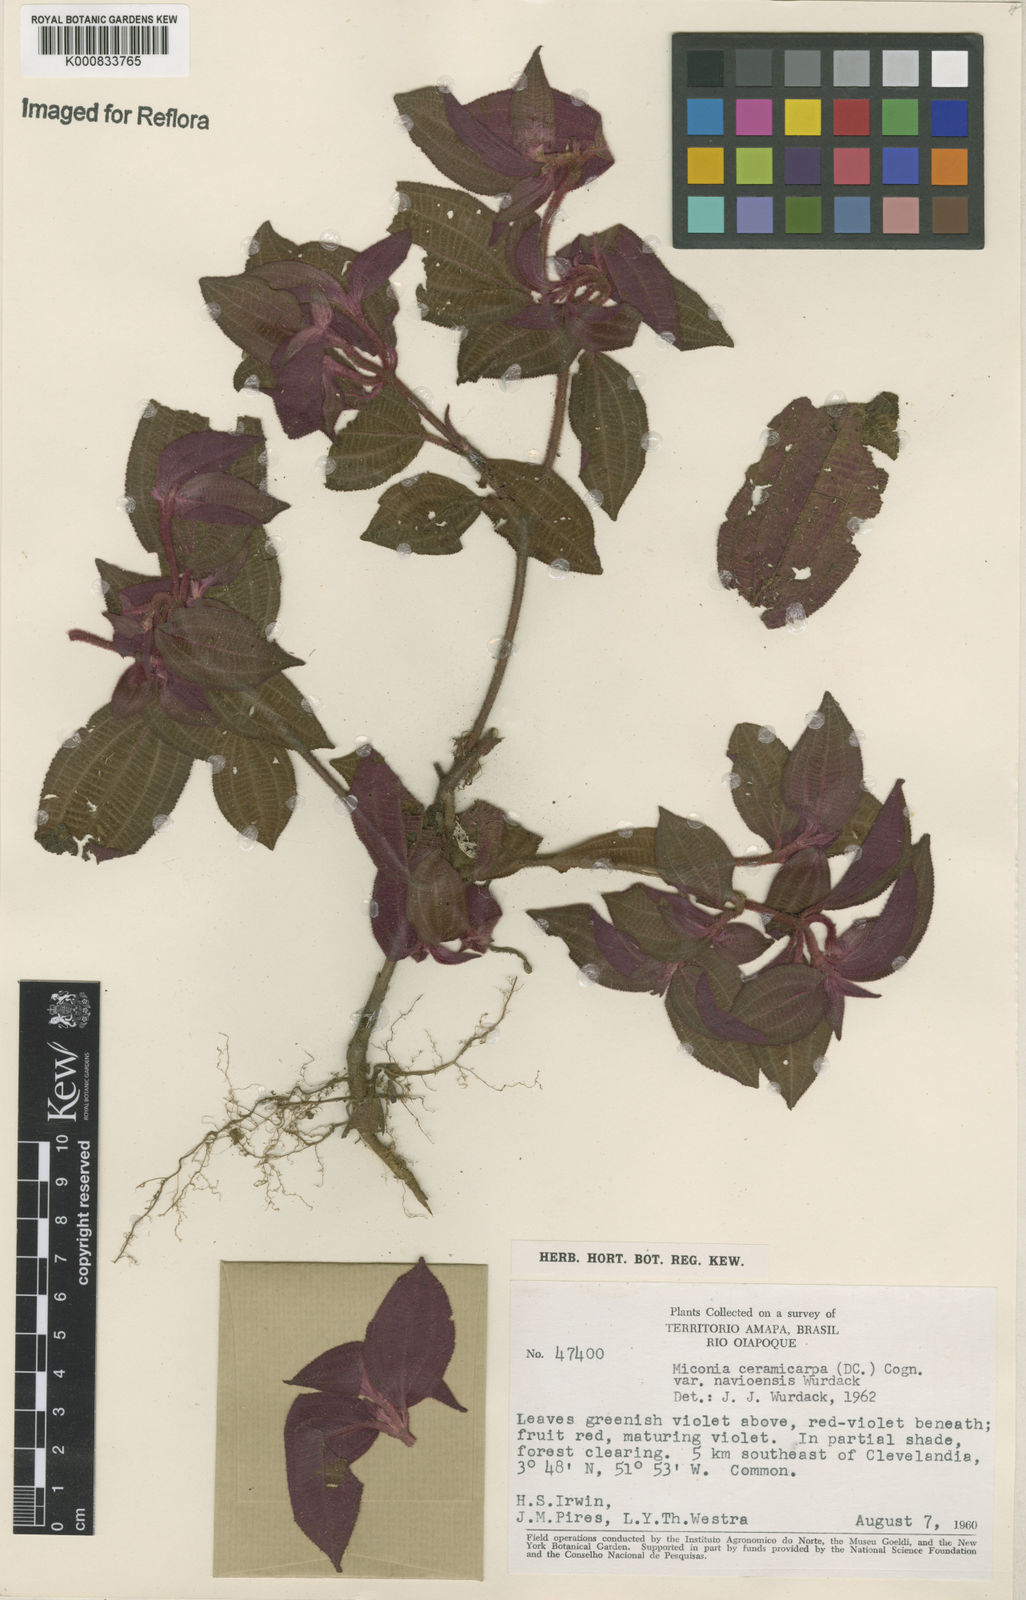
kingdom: Plantae
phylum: Tracheophyta
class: Magnoliopsida
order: Myrtales
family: Melastomataceae
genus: Miconia
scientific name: Miconia ceramicarpa
